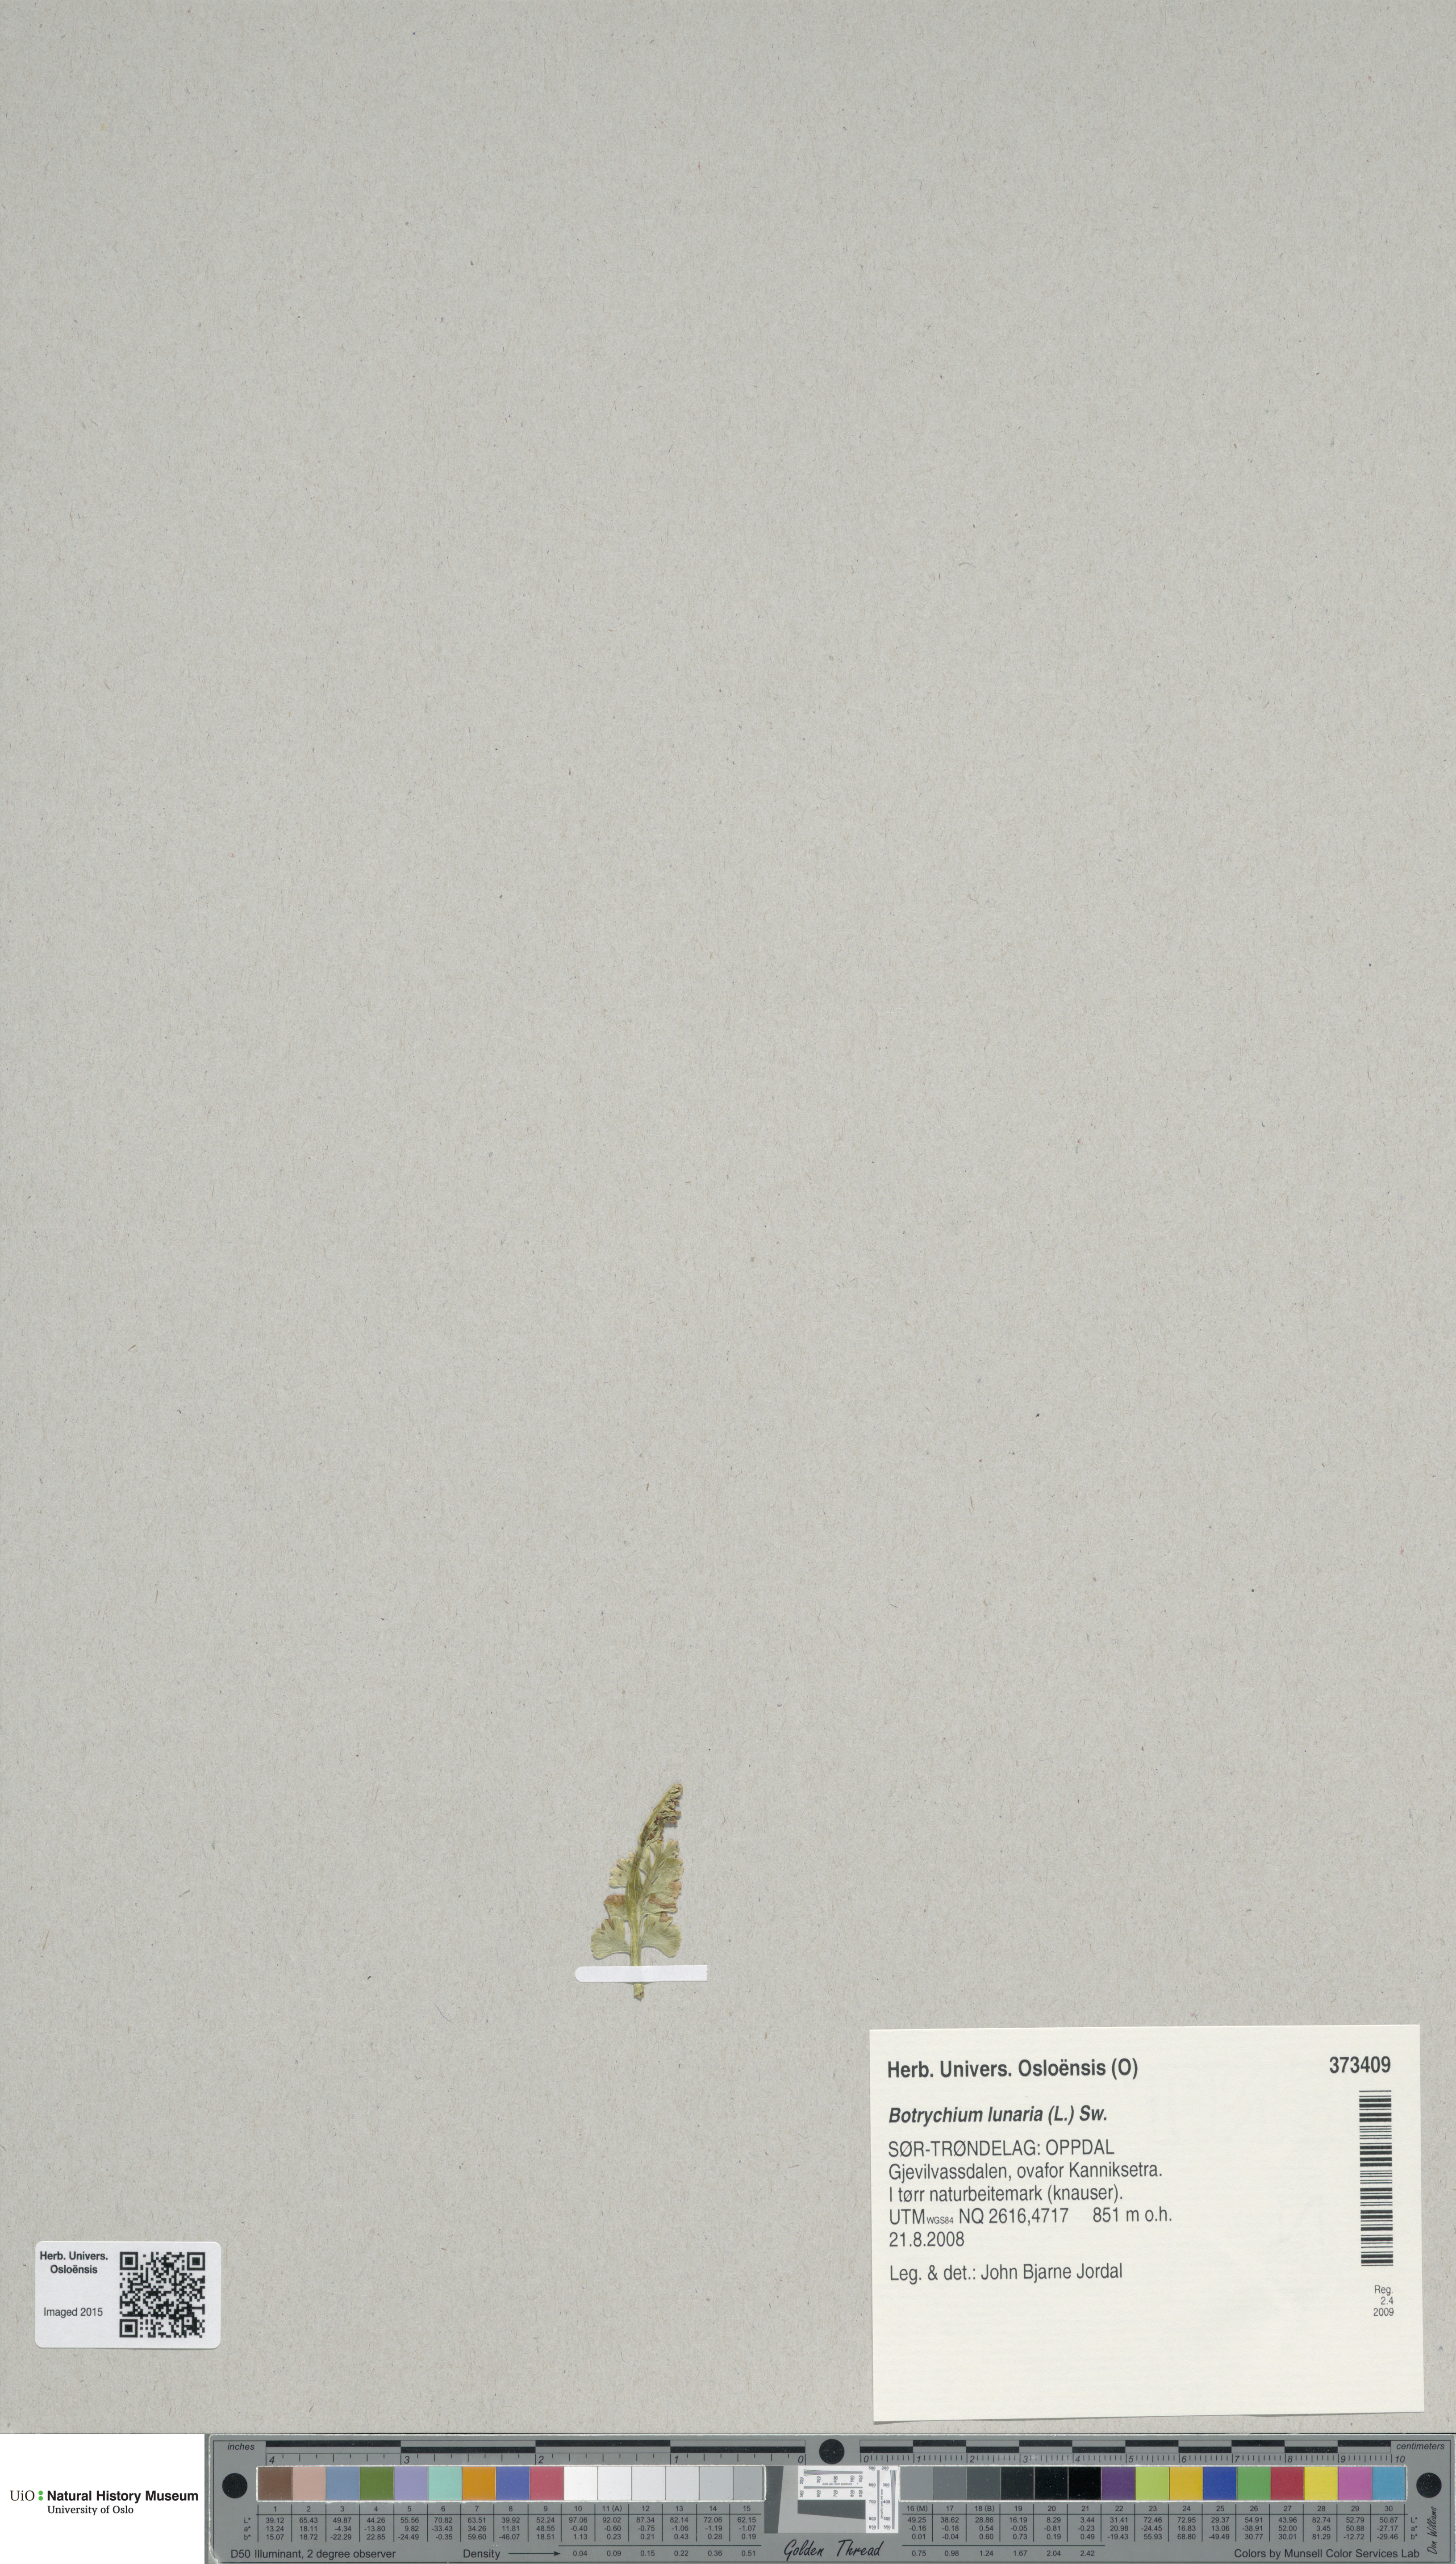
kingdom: Plantae
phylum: Tracheophyta
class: Polypodiopsida
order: Ophioglossales
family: Ophioglossaceae
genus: Botrychium
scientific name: Botrychium lunaria
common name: Moonwort
